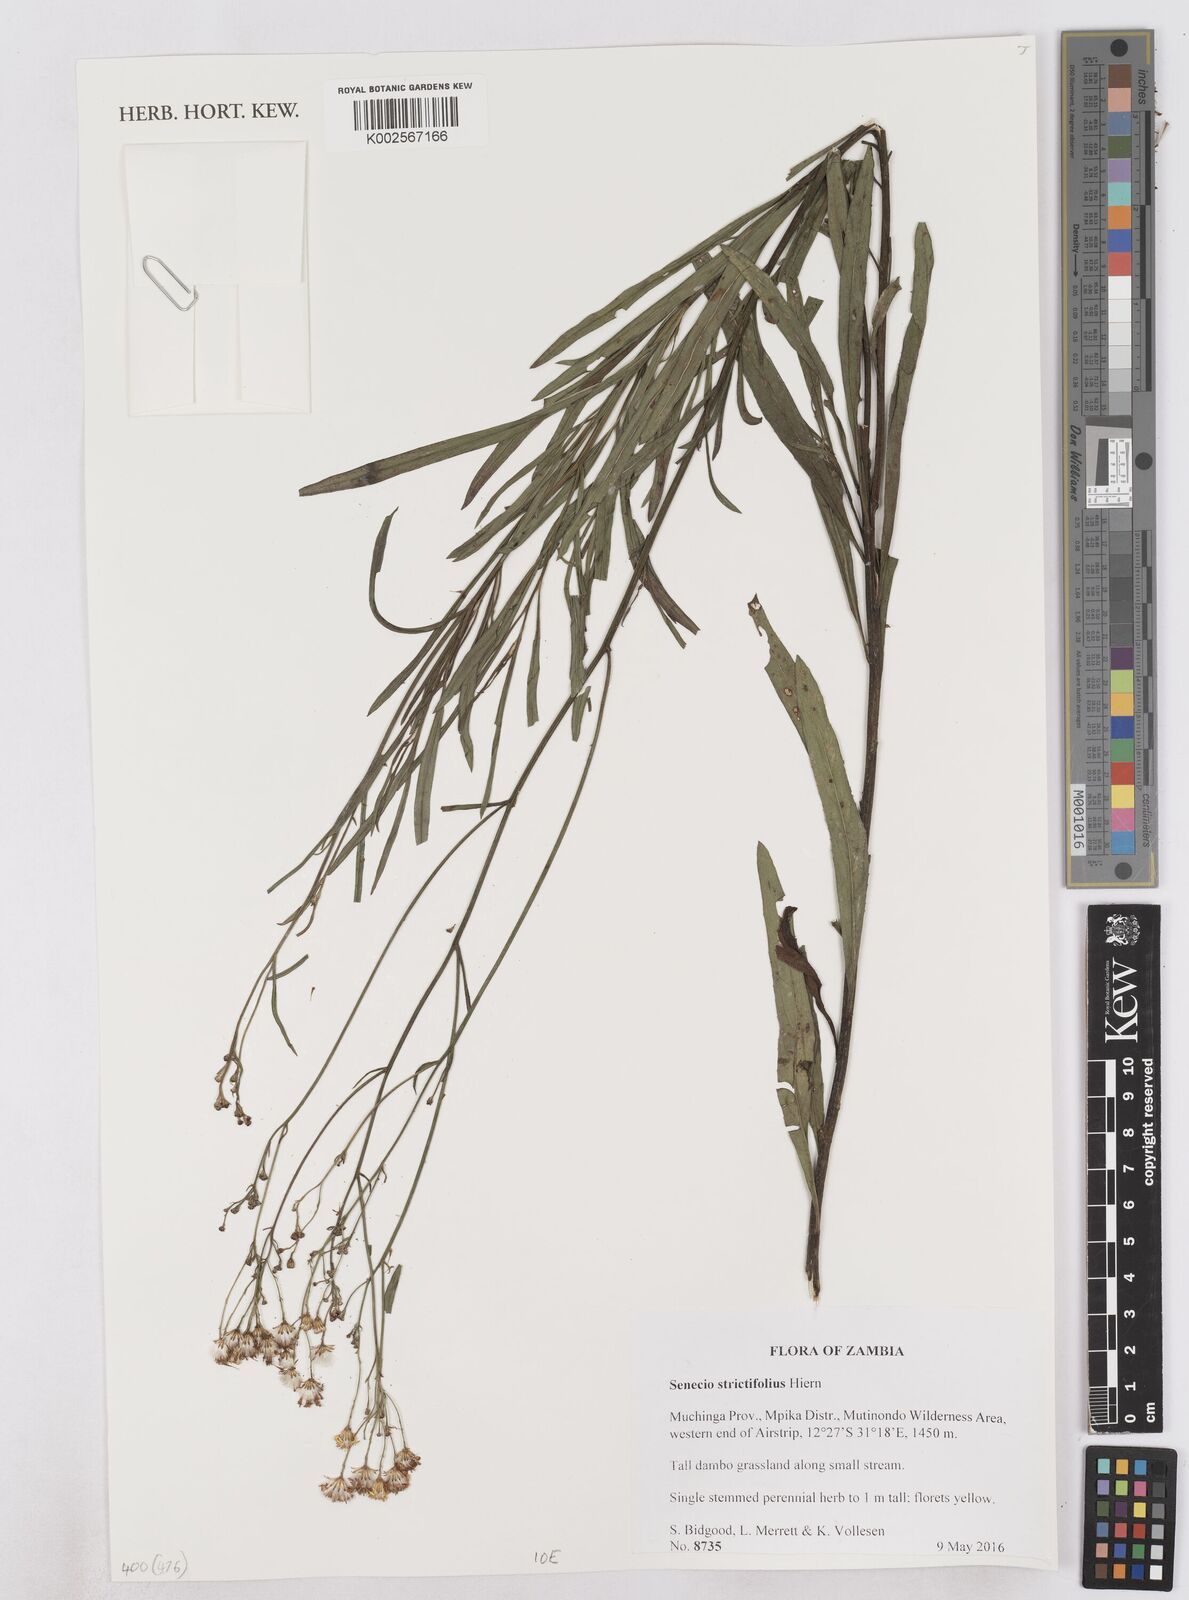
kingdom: Plantae
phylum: Tracheophyta
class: Magnoliopsida
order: Asterales
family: Asteraceae
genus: Senecio
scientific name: Senecio strictifolius
